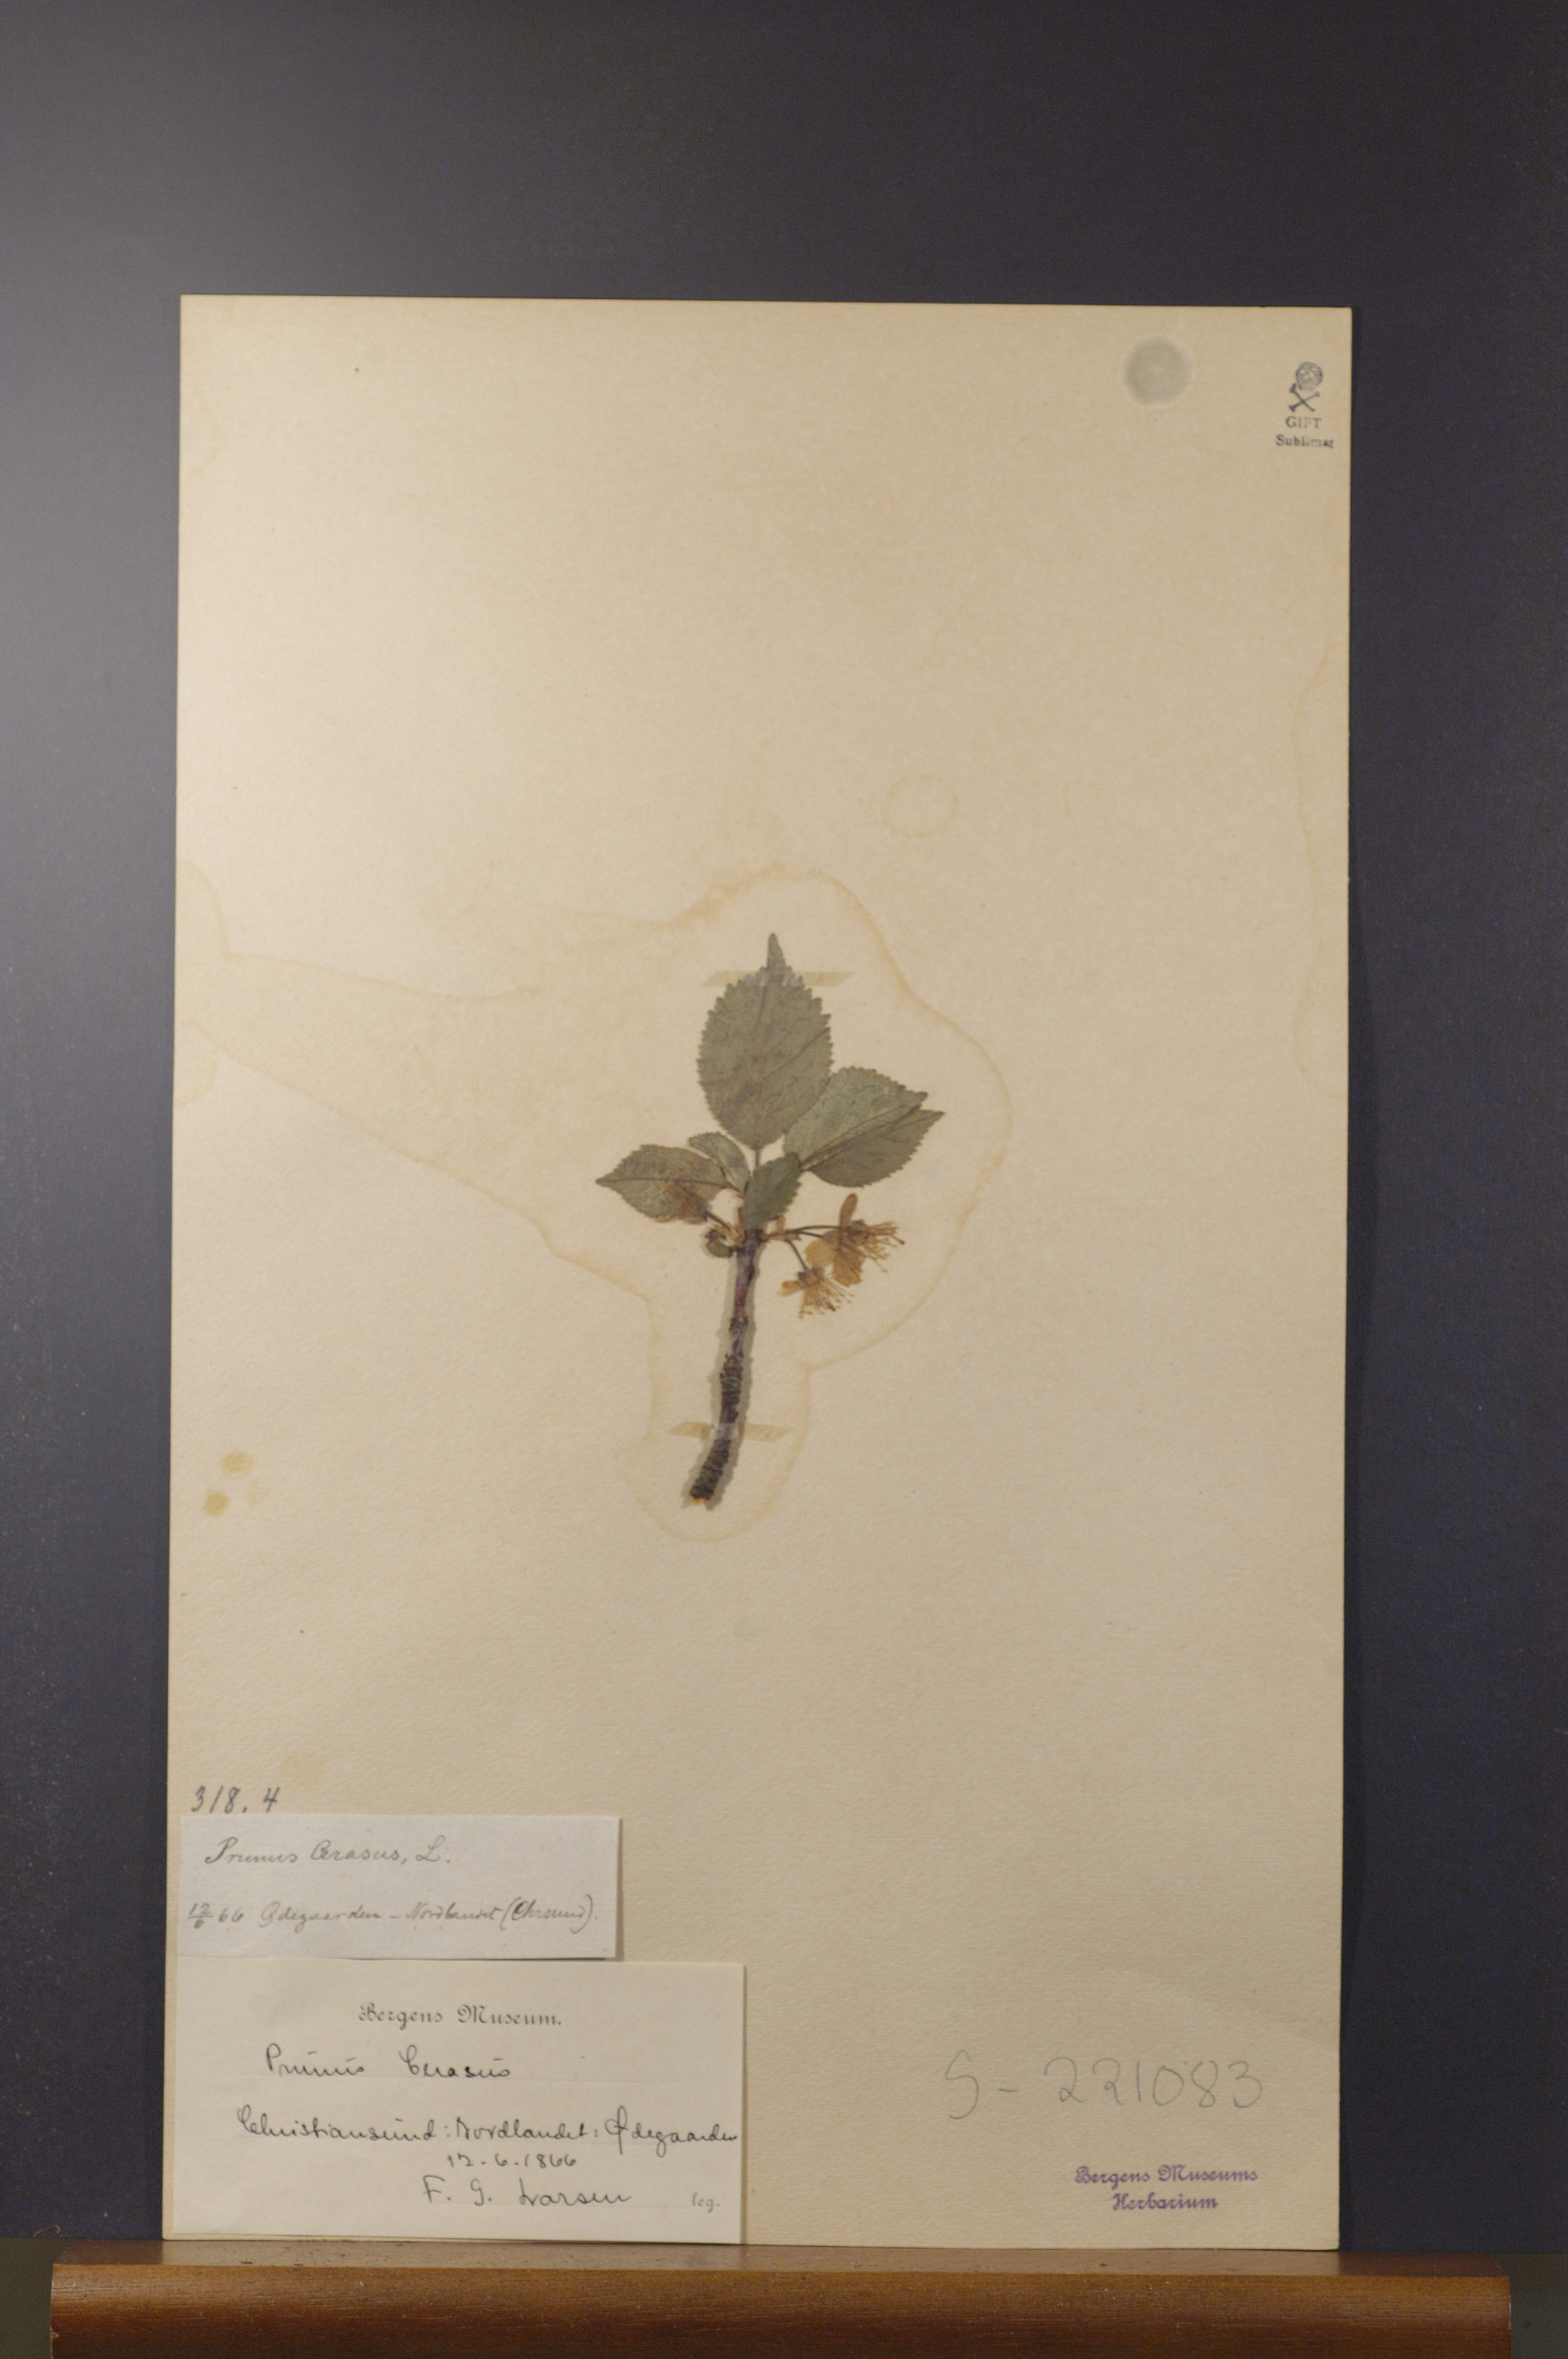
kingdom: Plantae
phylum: Tracheophyta
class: Magnoliopsida
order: Rosales
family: Rosaceae
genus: Prunus
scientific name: Prunus cerasus
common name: Morello cherry
